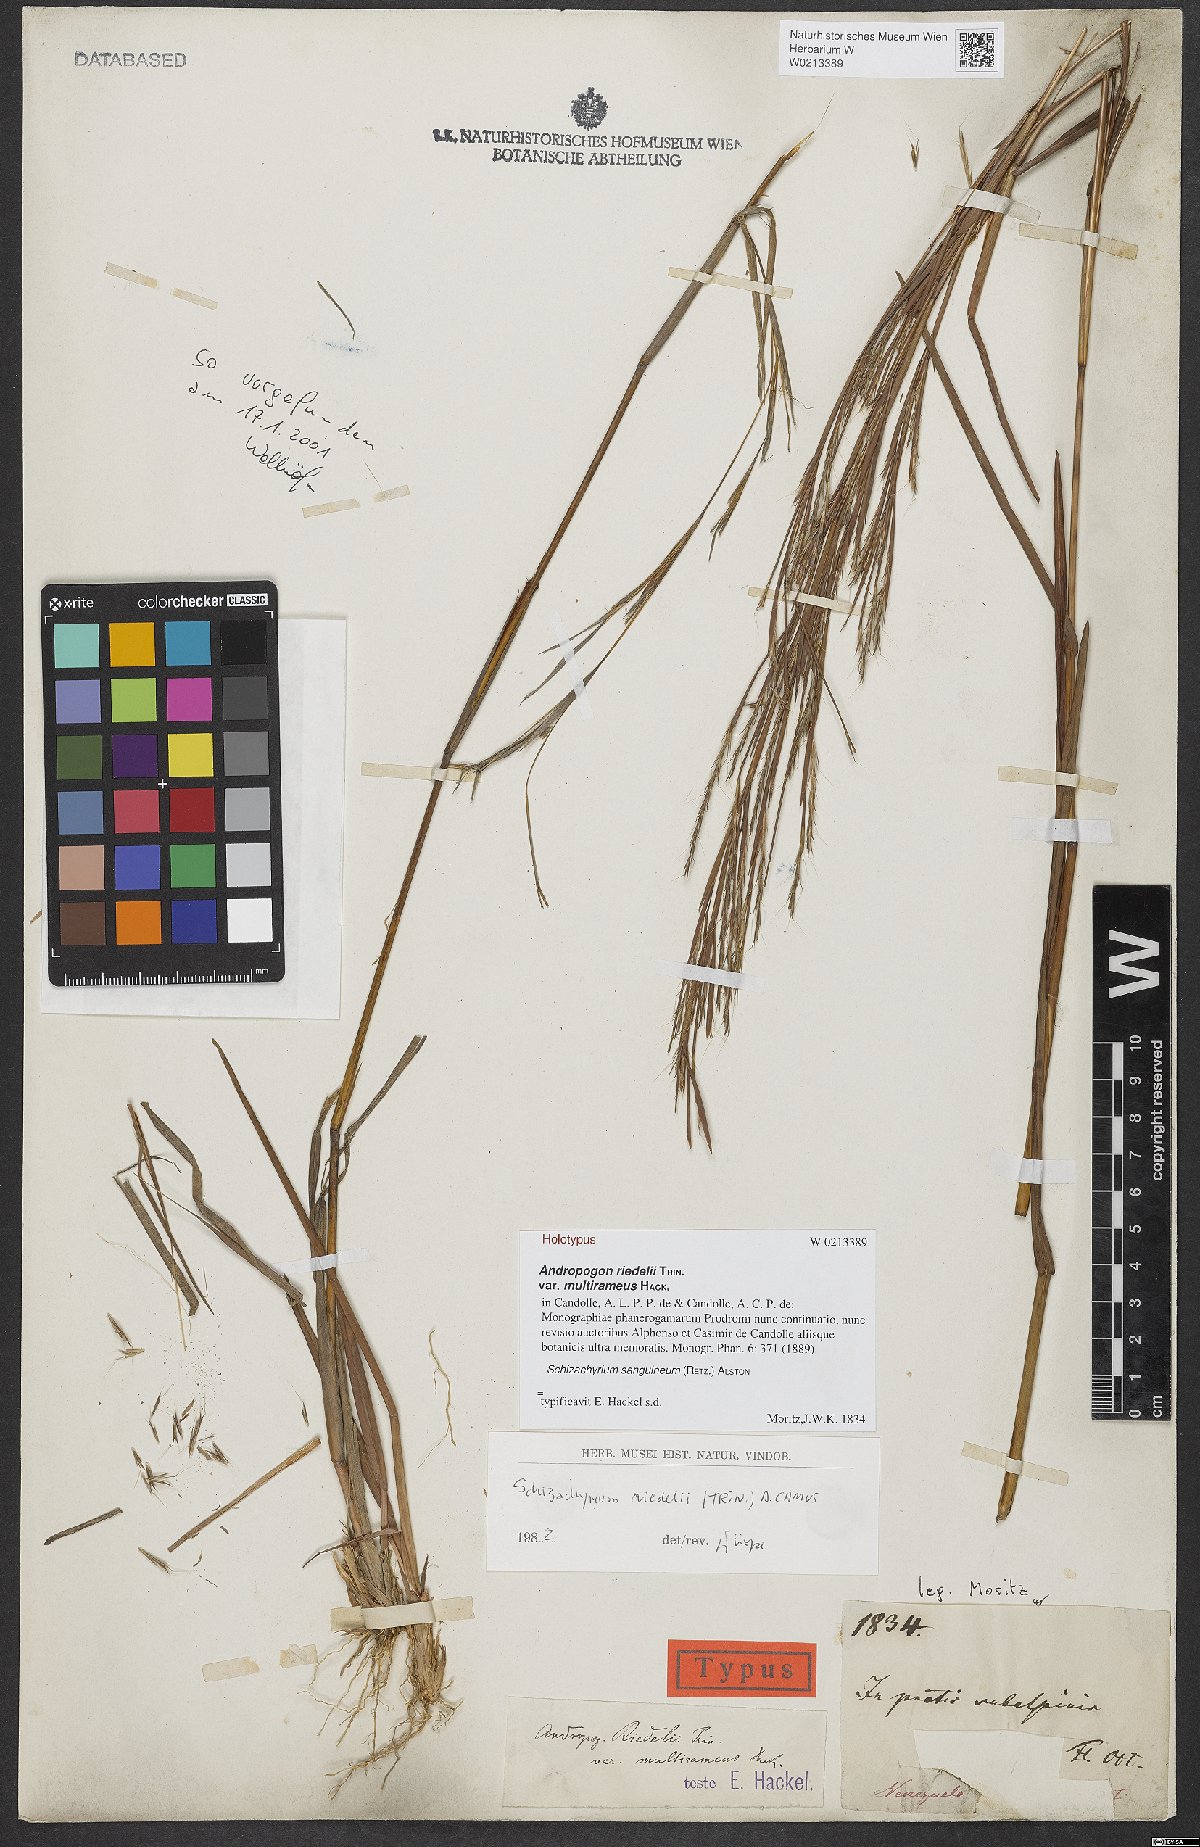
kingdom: Plantae
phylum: Tracheophyta
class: Liliopsida
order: Poales
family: Poaceae
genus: Schizachyrium
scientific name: Schizachyrium sanguineum
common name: Crimson bluestem
